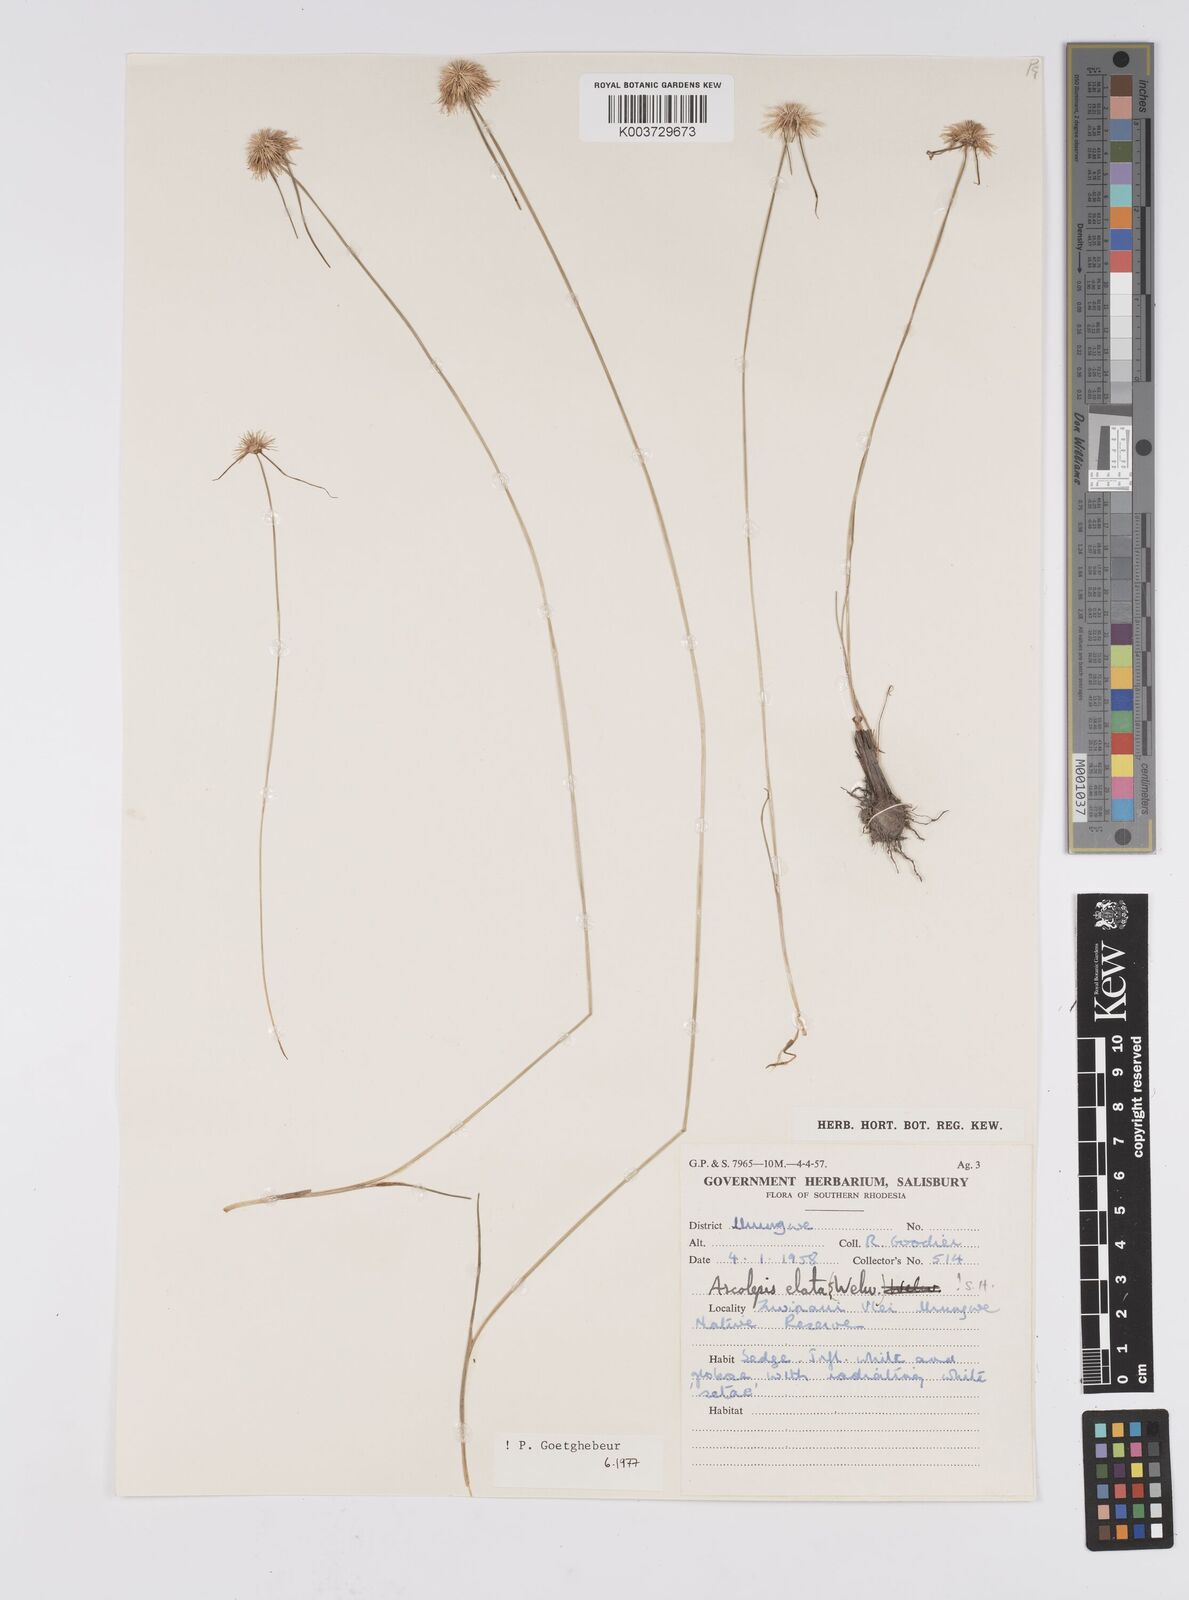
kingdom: Plantae
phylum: Tracheophyta
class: Liliopsida
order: Poales
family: Cyperaceae
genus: Cyperus
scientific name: Cyperus
